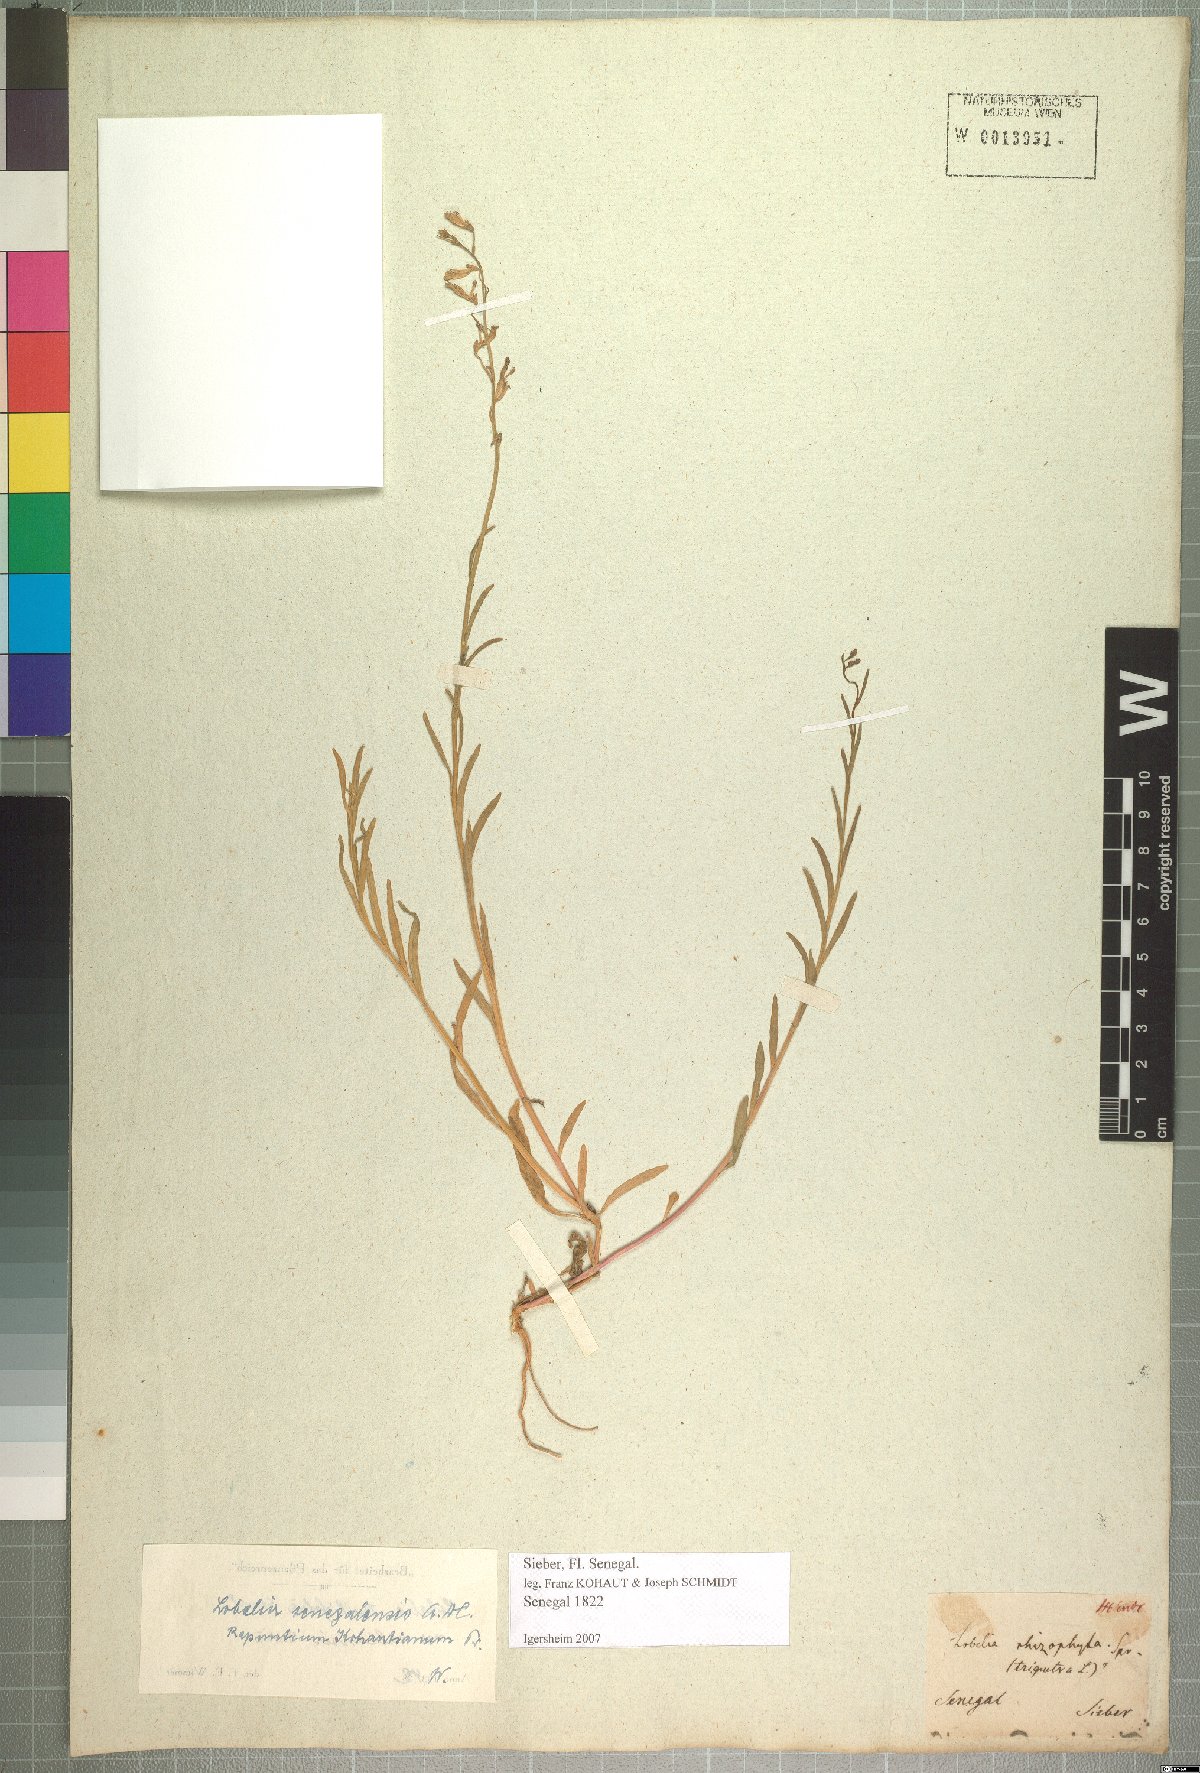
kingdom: Plantae
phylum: Tracheophyta
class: Magnoliopsida
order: Asterales
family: Campanulaceae
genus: Lobelia
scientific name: Lobelia erinus
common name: Edging lobelia
